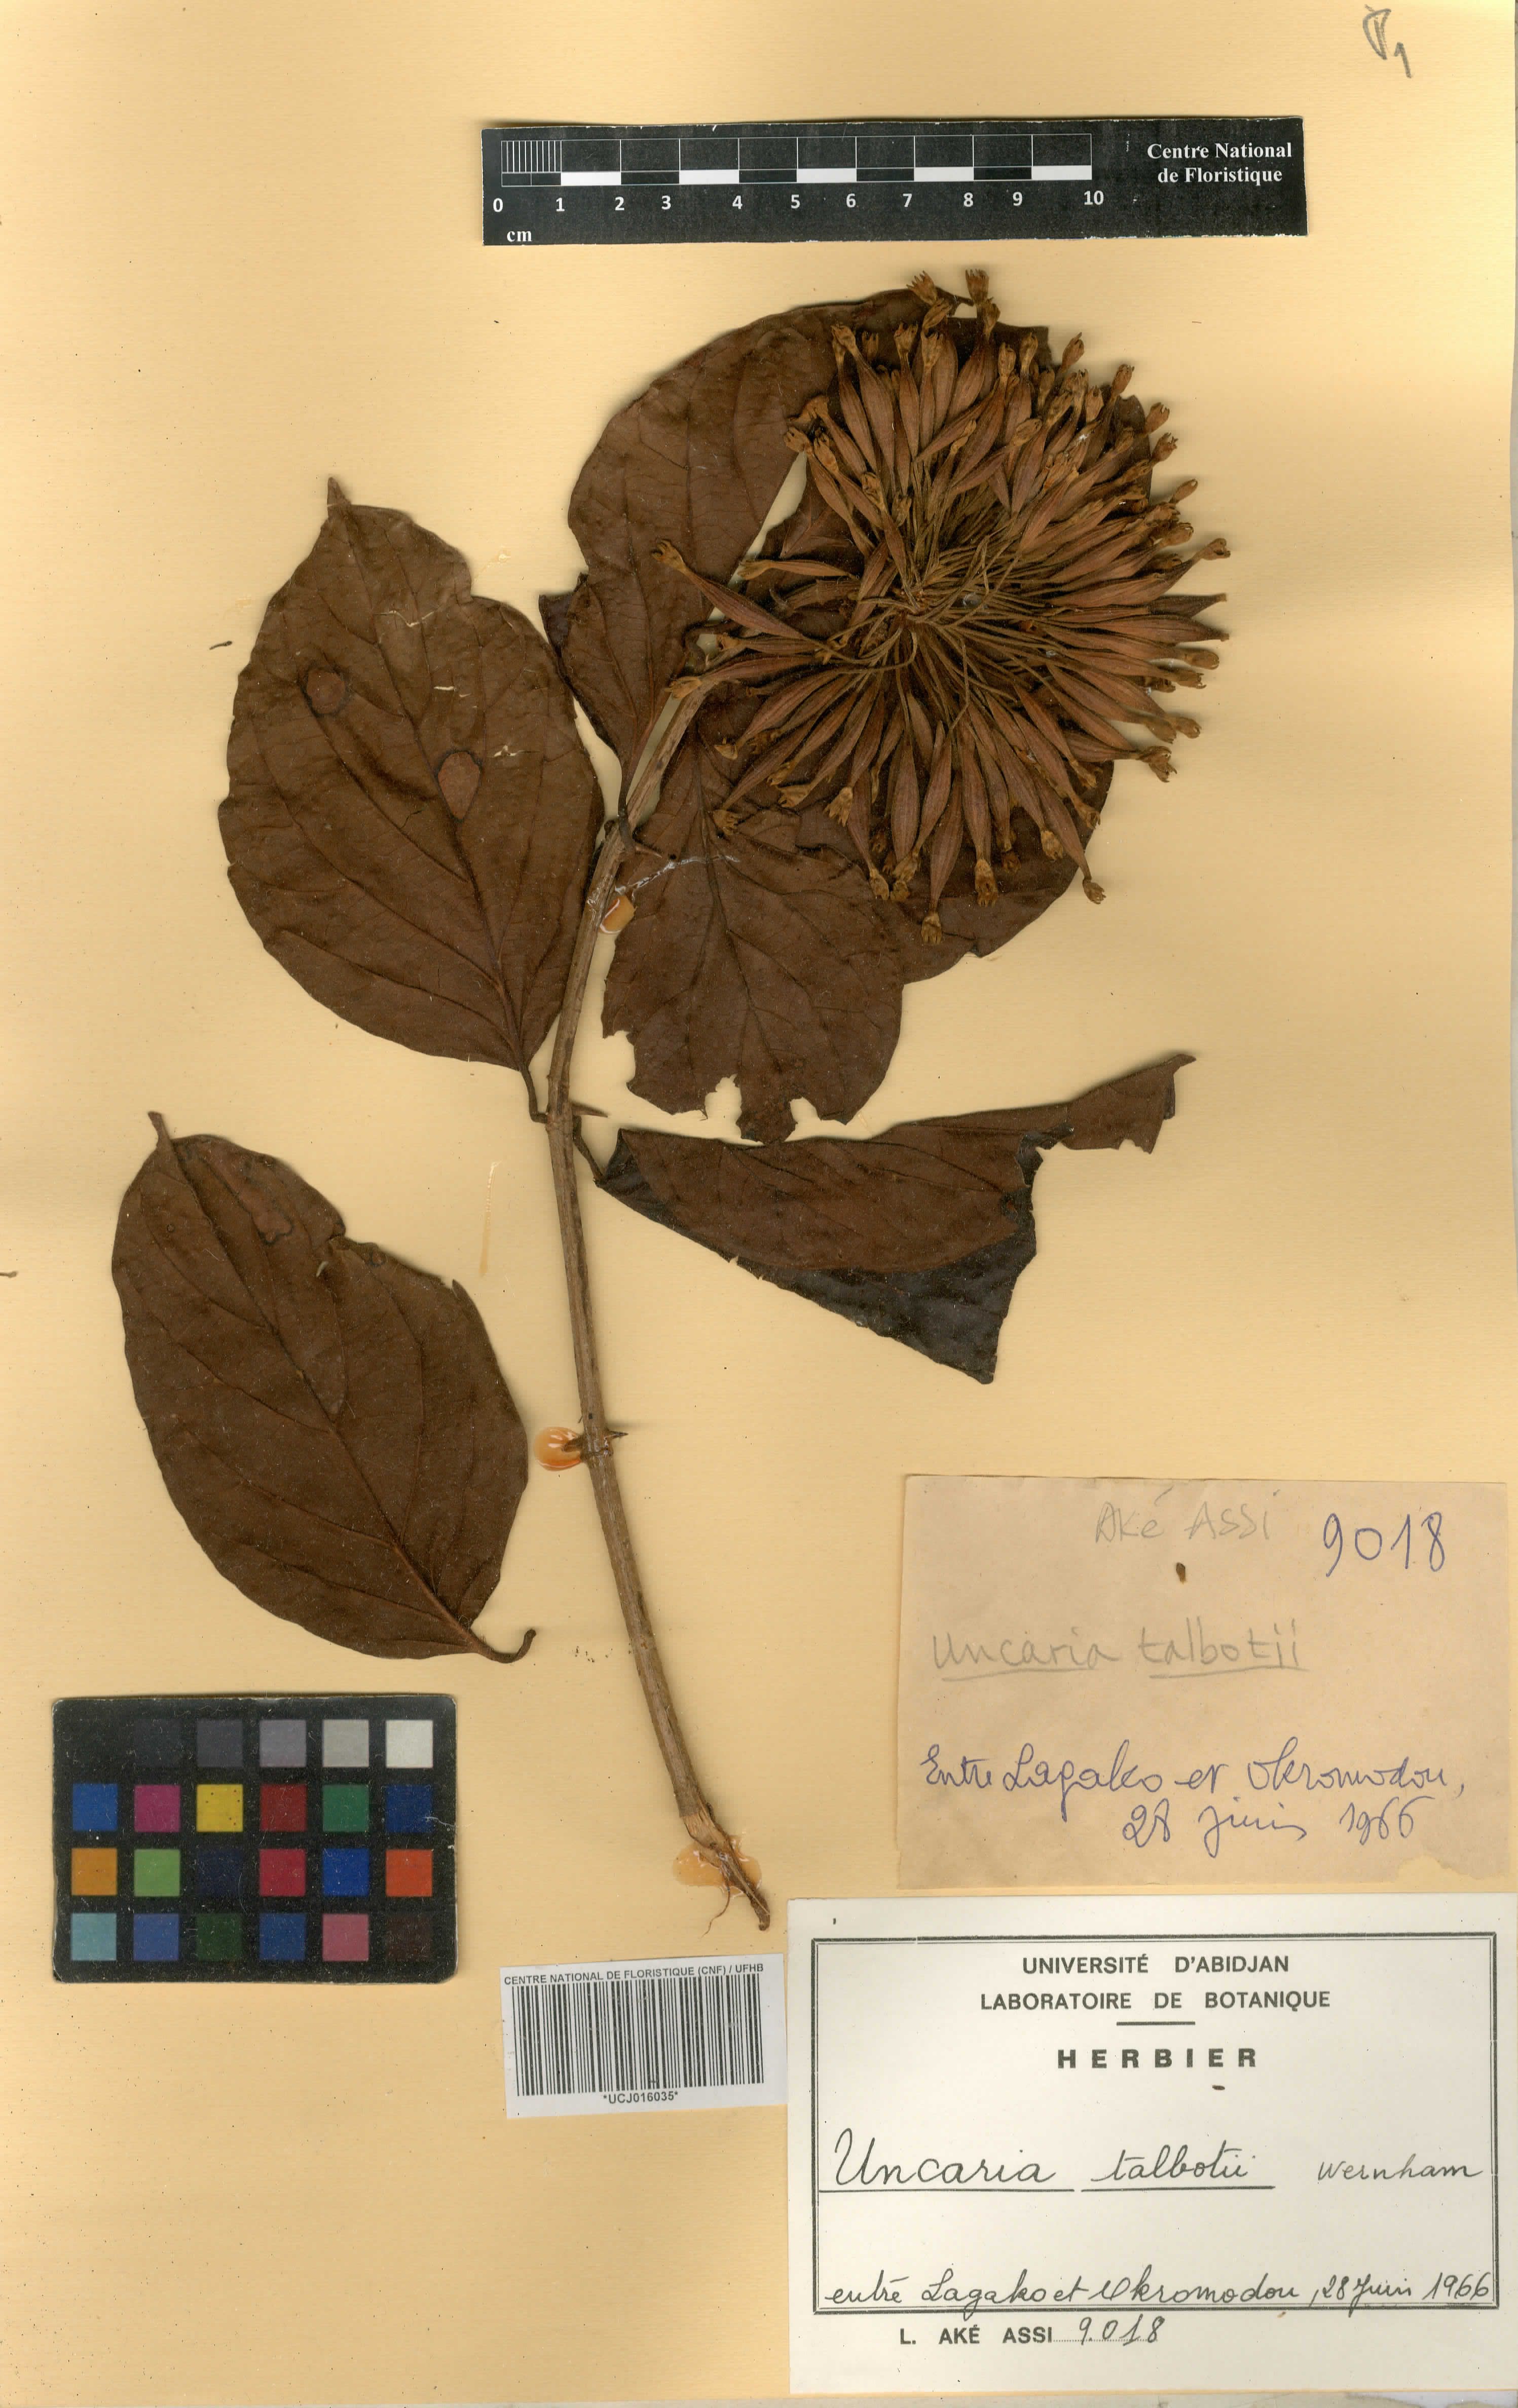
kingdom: Plantae
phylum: Tracheophyta
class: Magnoliopsida
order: Gentianales
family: Rubiaceae
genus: Uncaria
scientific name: Uncaria talbotii
